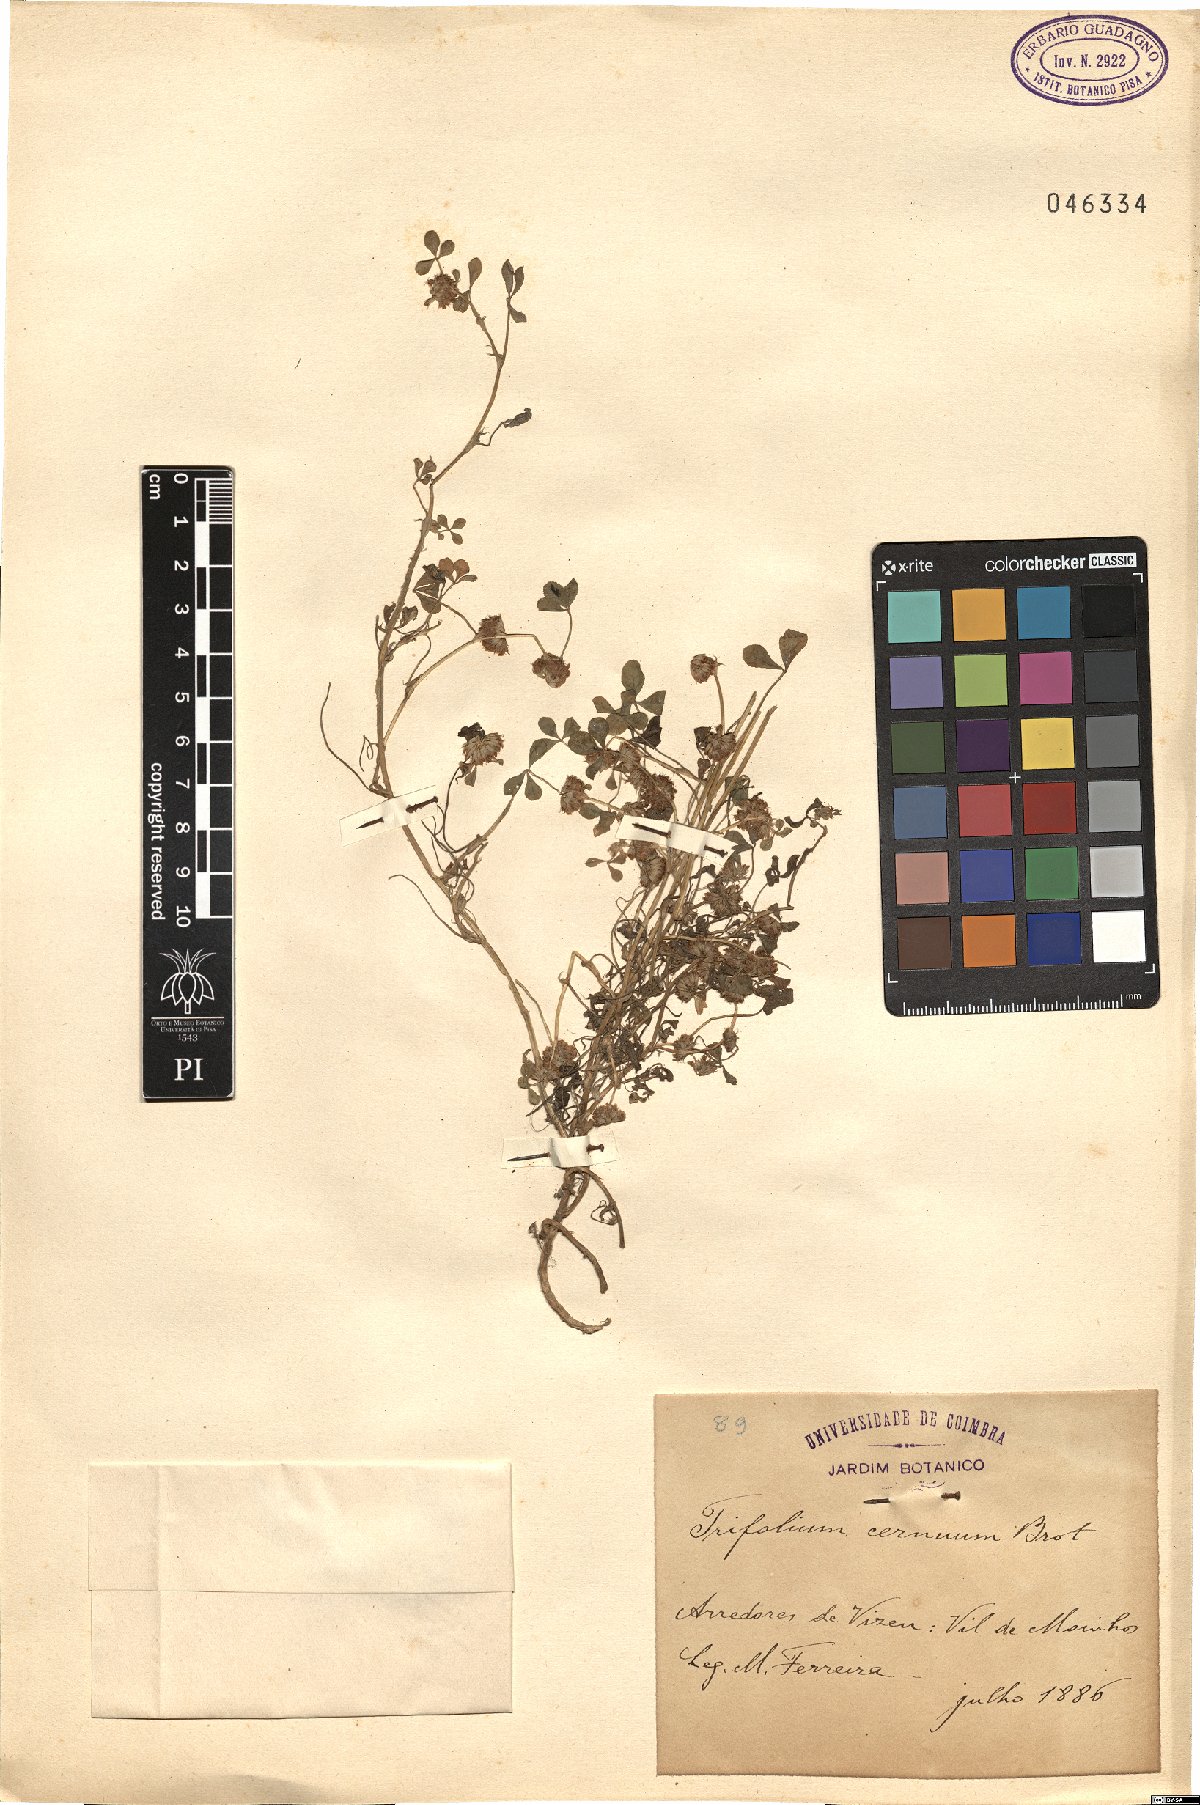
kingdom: Plantae
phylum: Tracheophyta
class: Magnoliopsida
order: Fabales
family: Fabaceae
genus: Trifolium
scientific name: Trifolium cernuum
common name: Nodding clover
